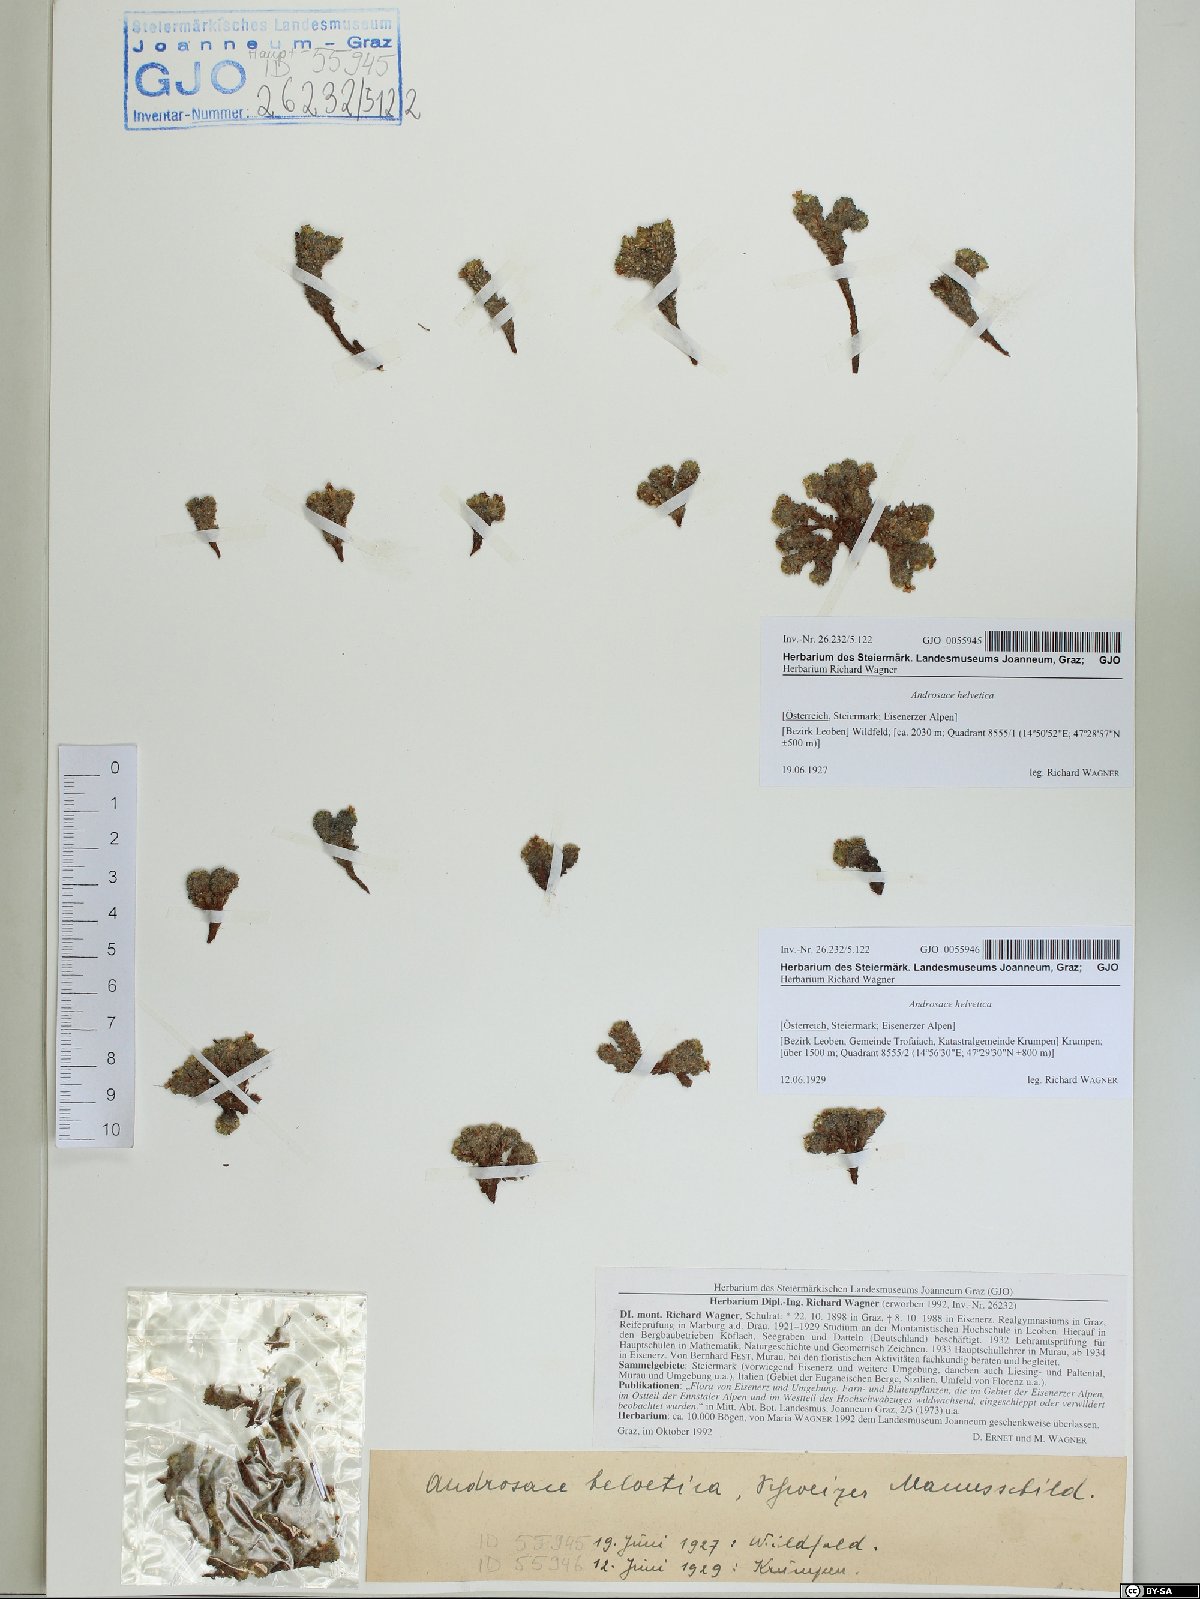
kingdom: Plantae
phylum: Tracheophyta
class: Magnoliopsida
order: Ericales
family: Primulaceae
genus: Androsace
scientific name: Androsace helvetica
